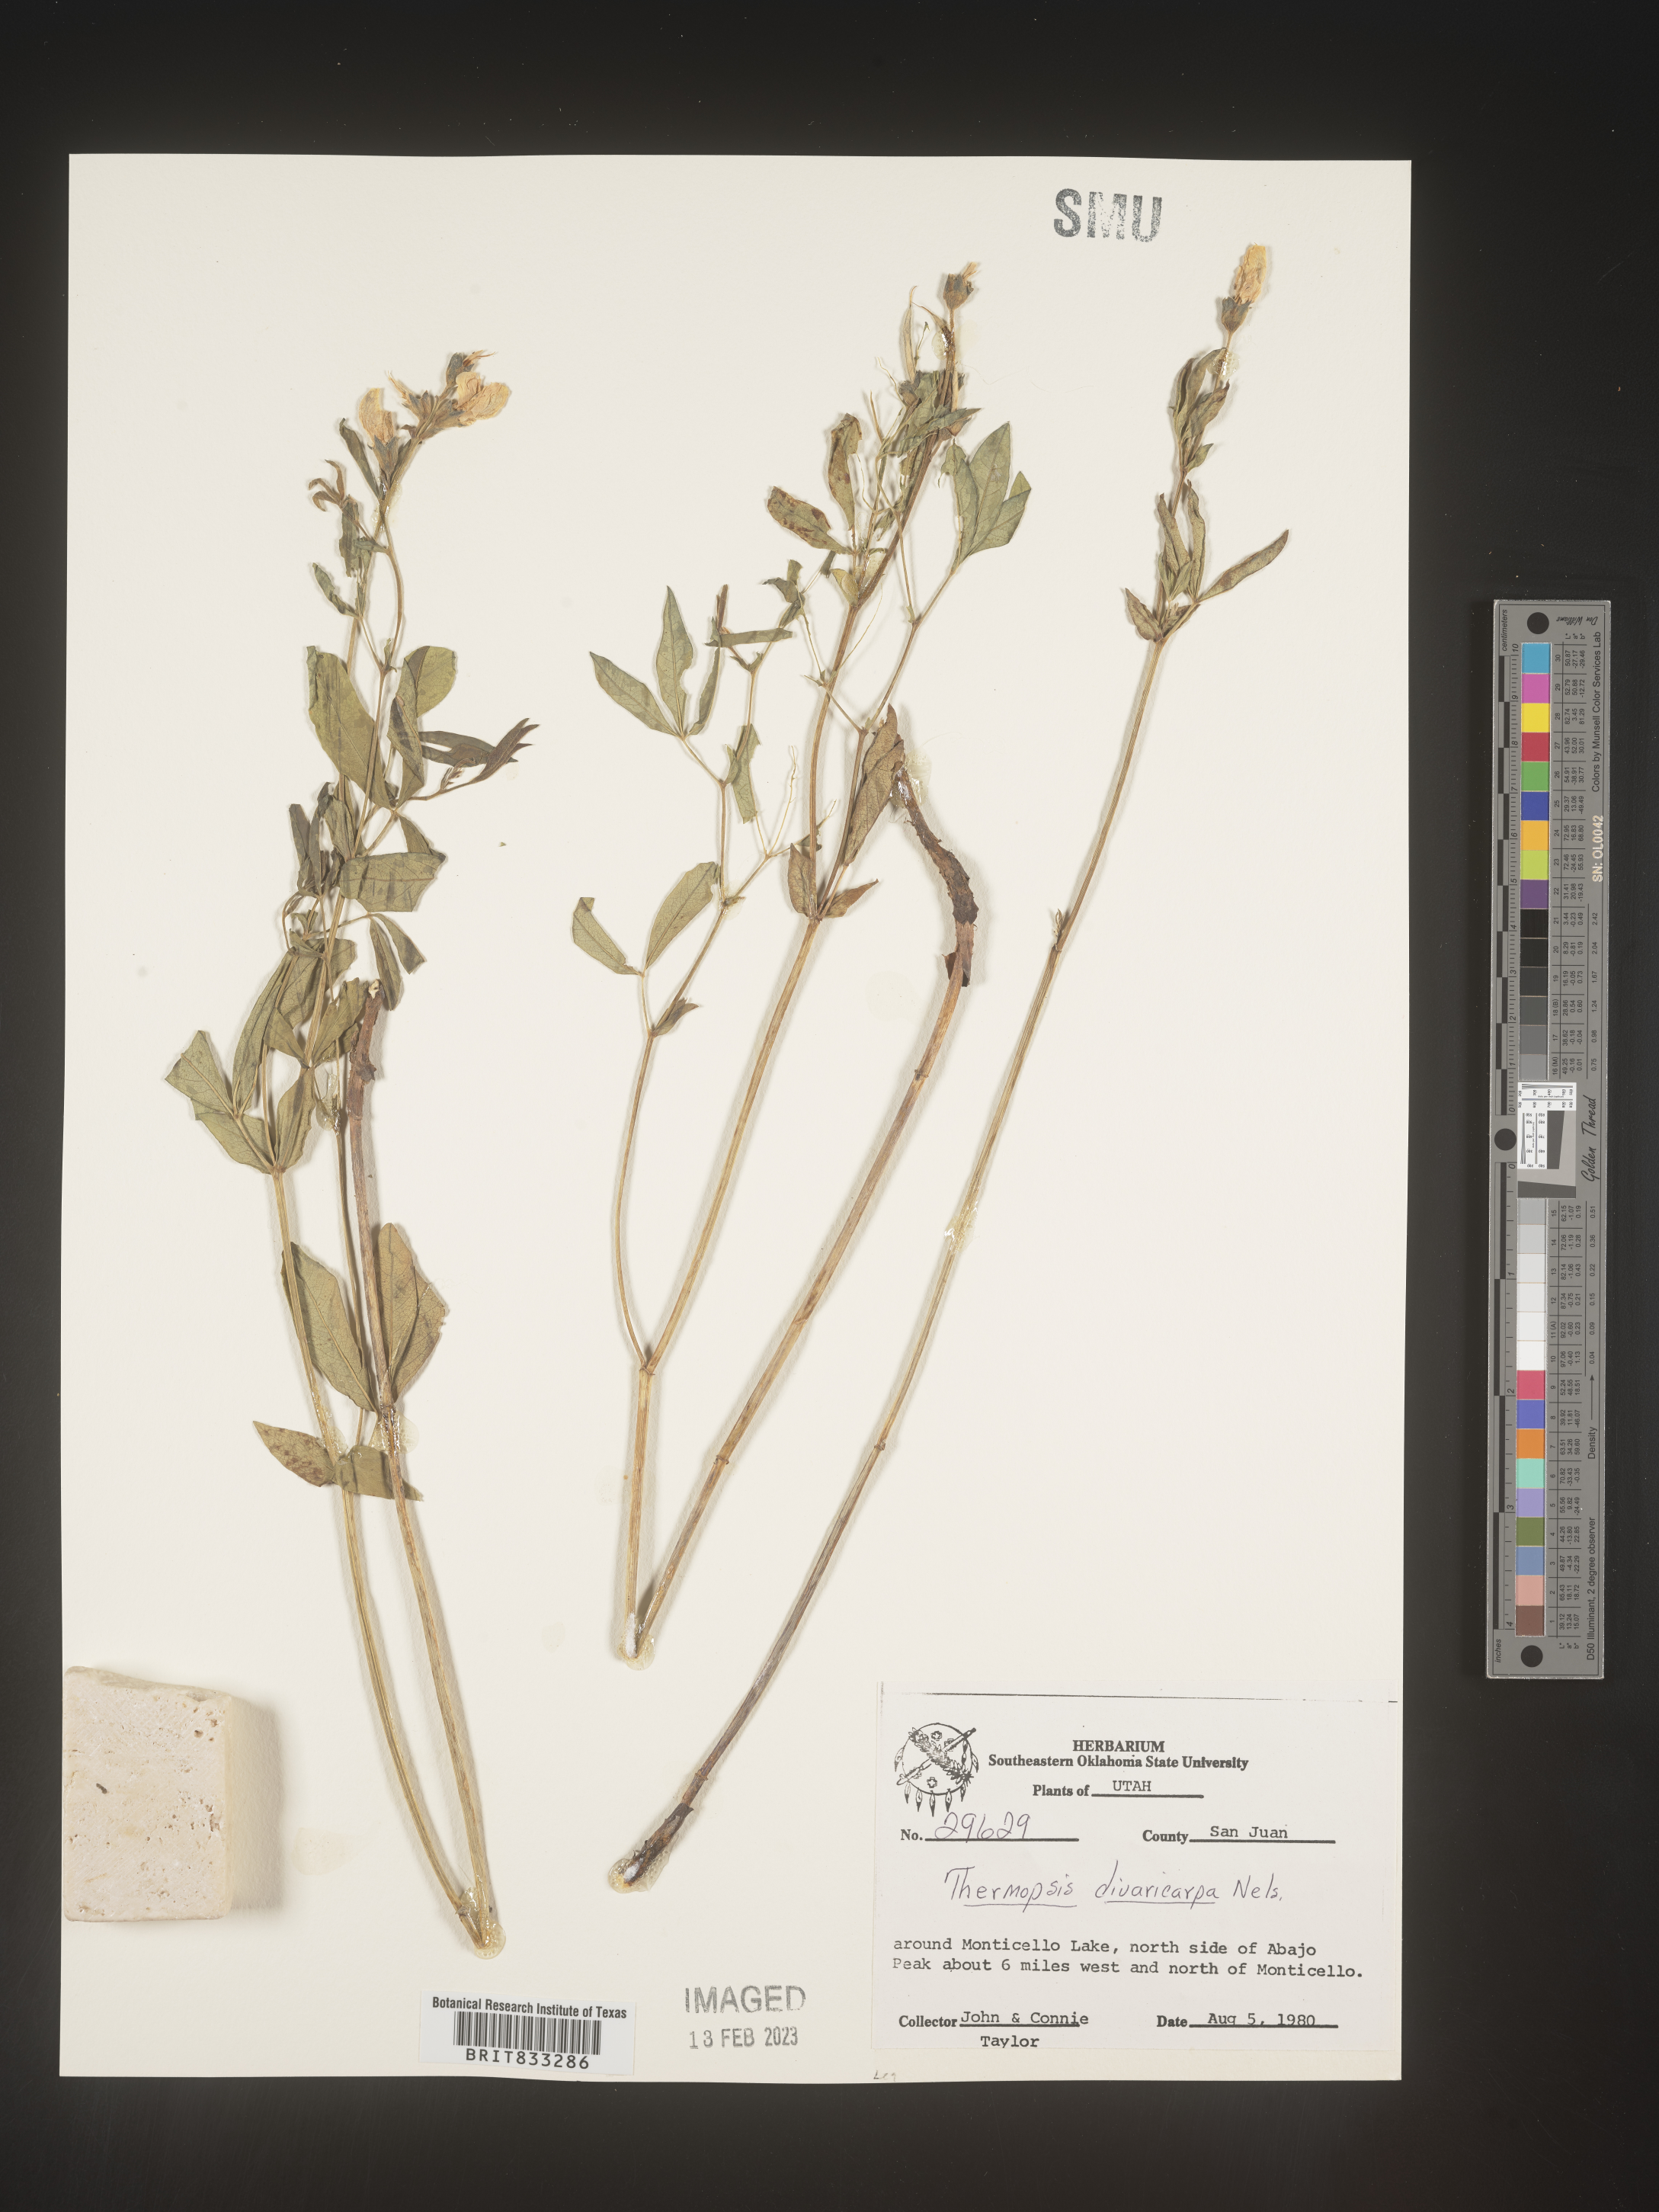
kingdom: Plantae
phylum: Tracheophyta
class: Magnoliopsida
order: Fabales
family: Fabaceae
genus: Thermopsis
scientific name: Thermopsis rhombifolia
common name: Circle-pod-pea
